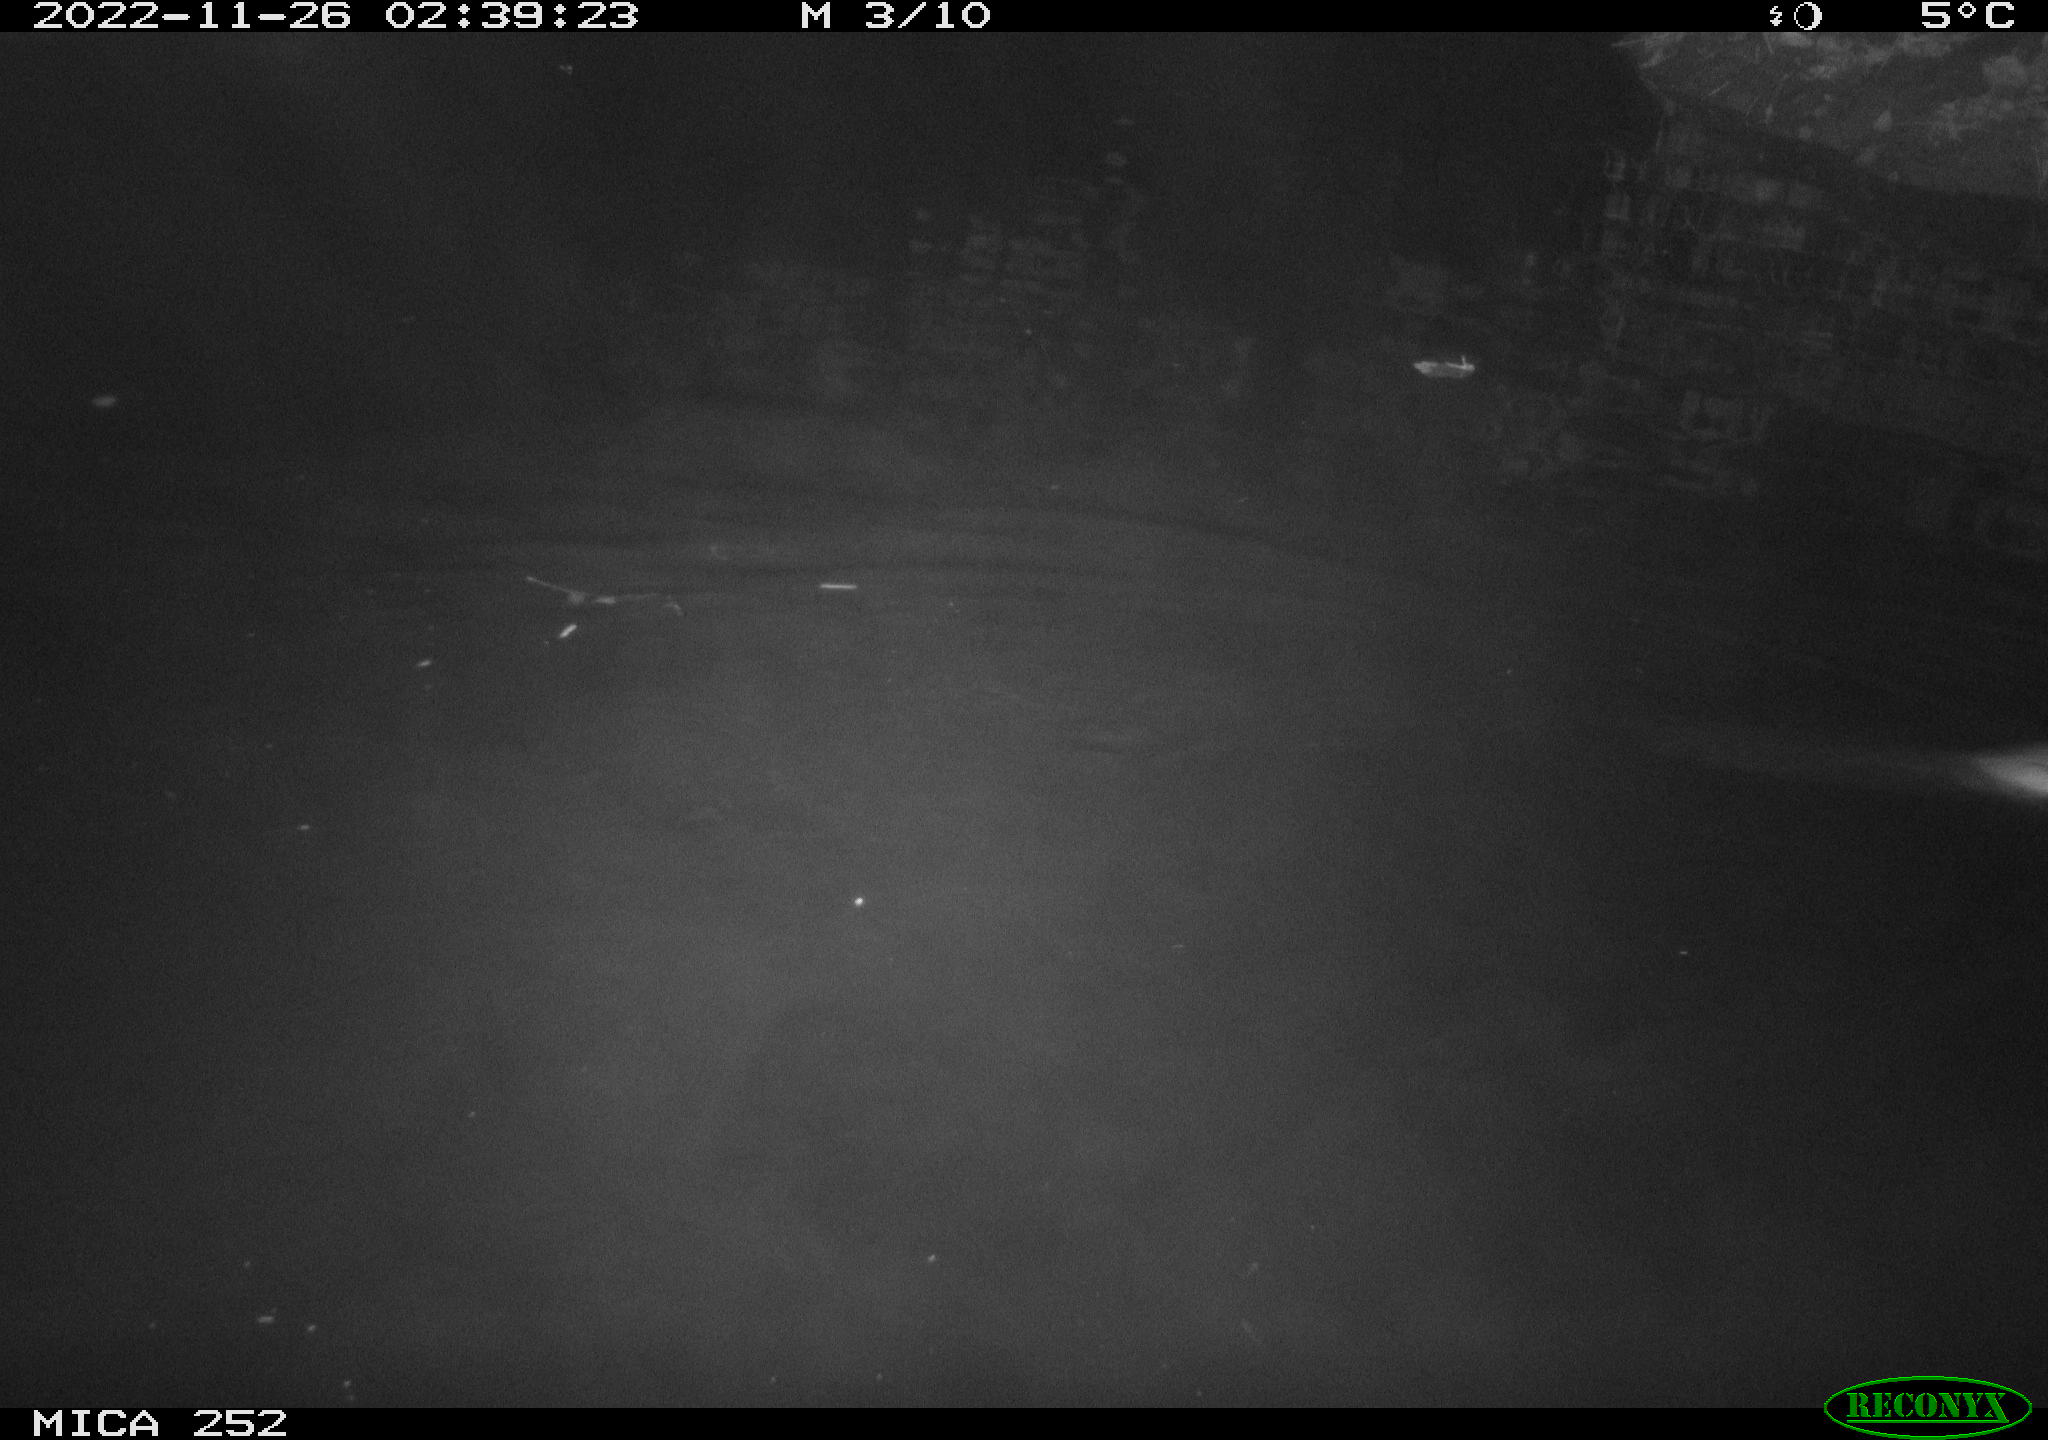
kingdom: Animalia
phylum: Chordata
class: Mammalia
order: Rodentia
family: Castoridae
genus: Castor
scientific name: Castor fiber
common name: Eurasian beaver
